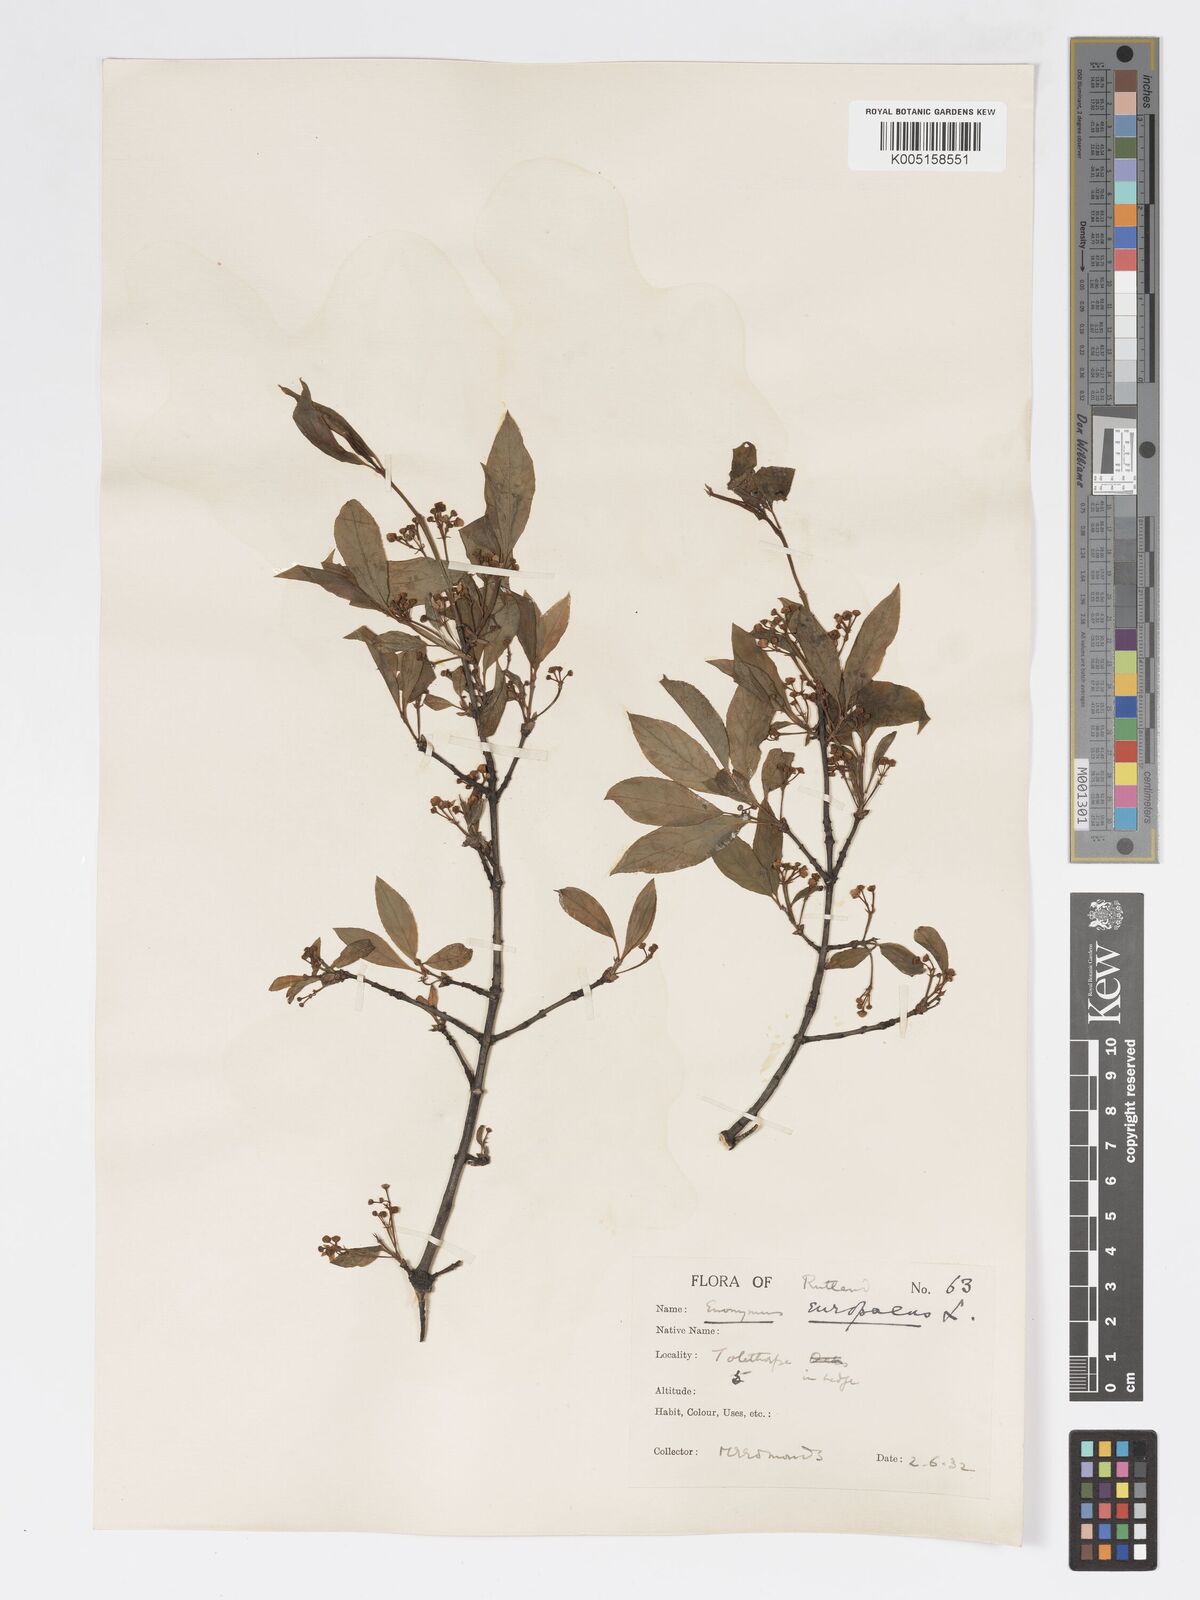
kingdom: Plantae
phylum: Tracheophyta
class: Magnoliopsida
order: Celastrales
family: Celastraceae
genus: Euonymus
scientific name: Euonymus europaeus
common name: Spindle
